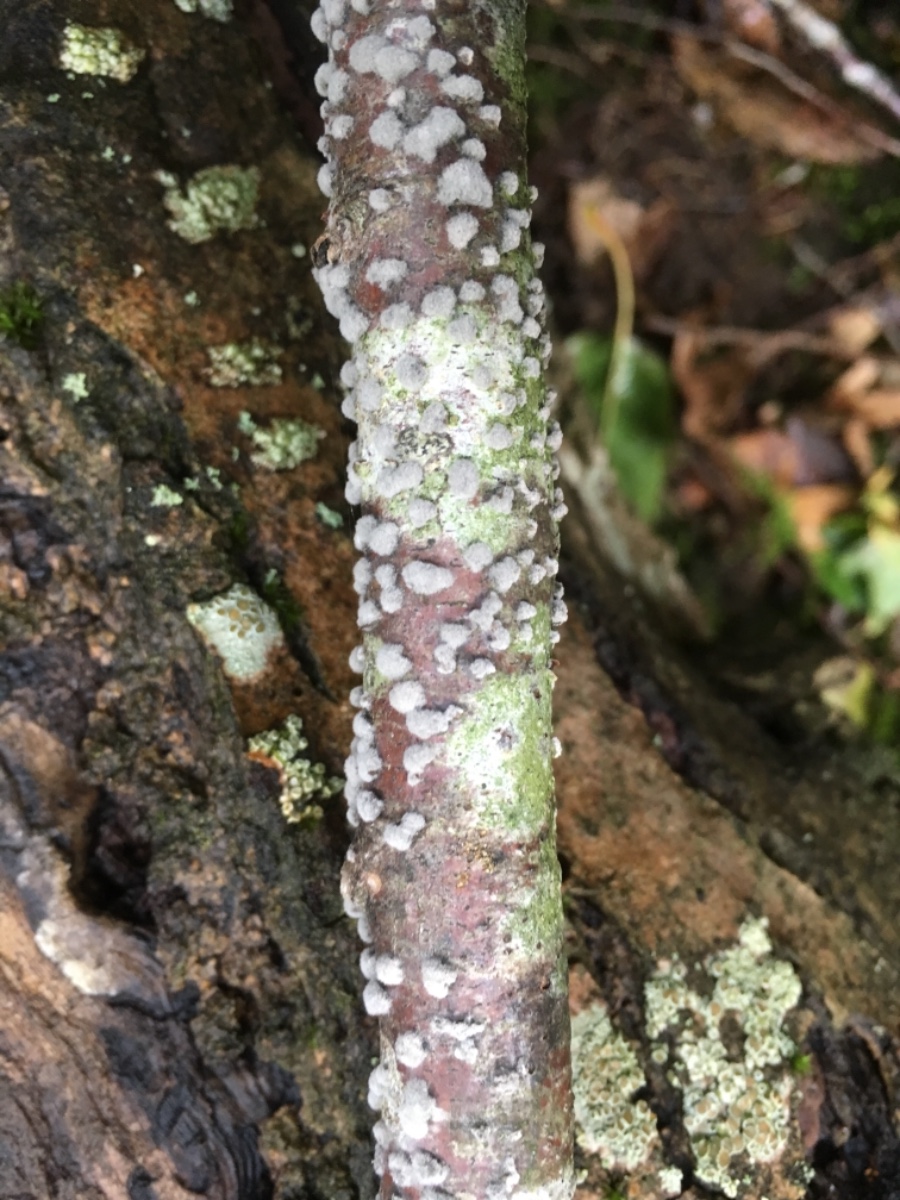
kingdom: Fungi
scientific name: Fungi
